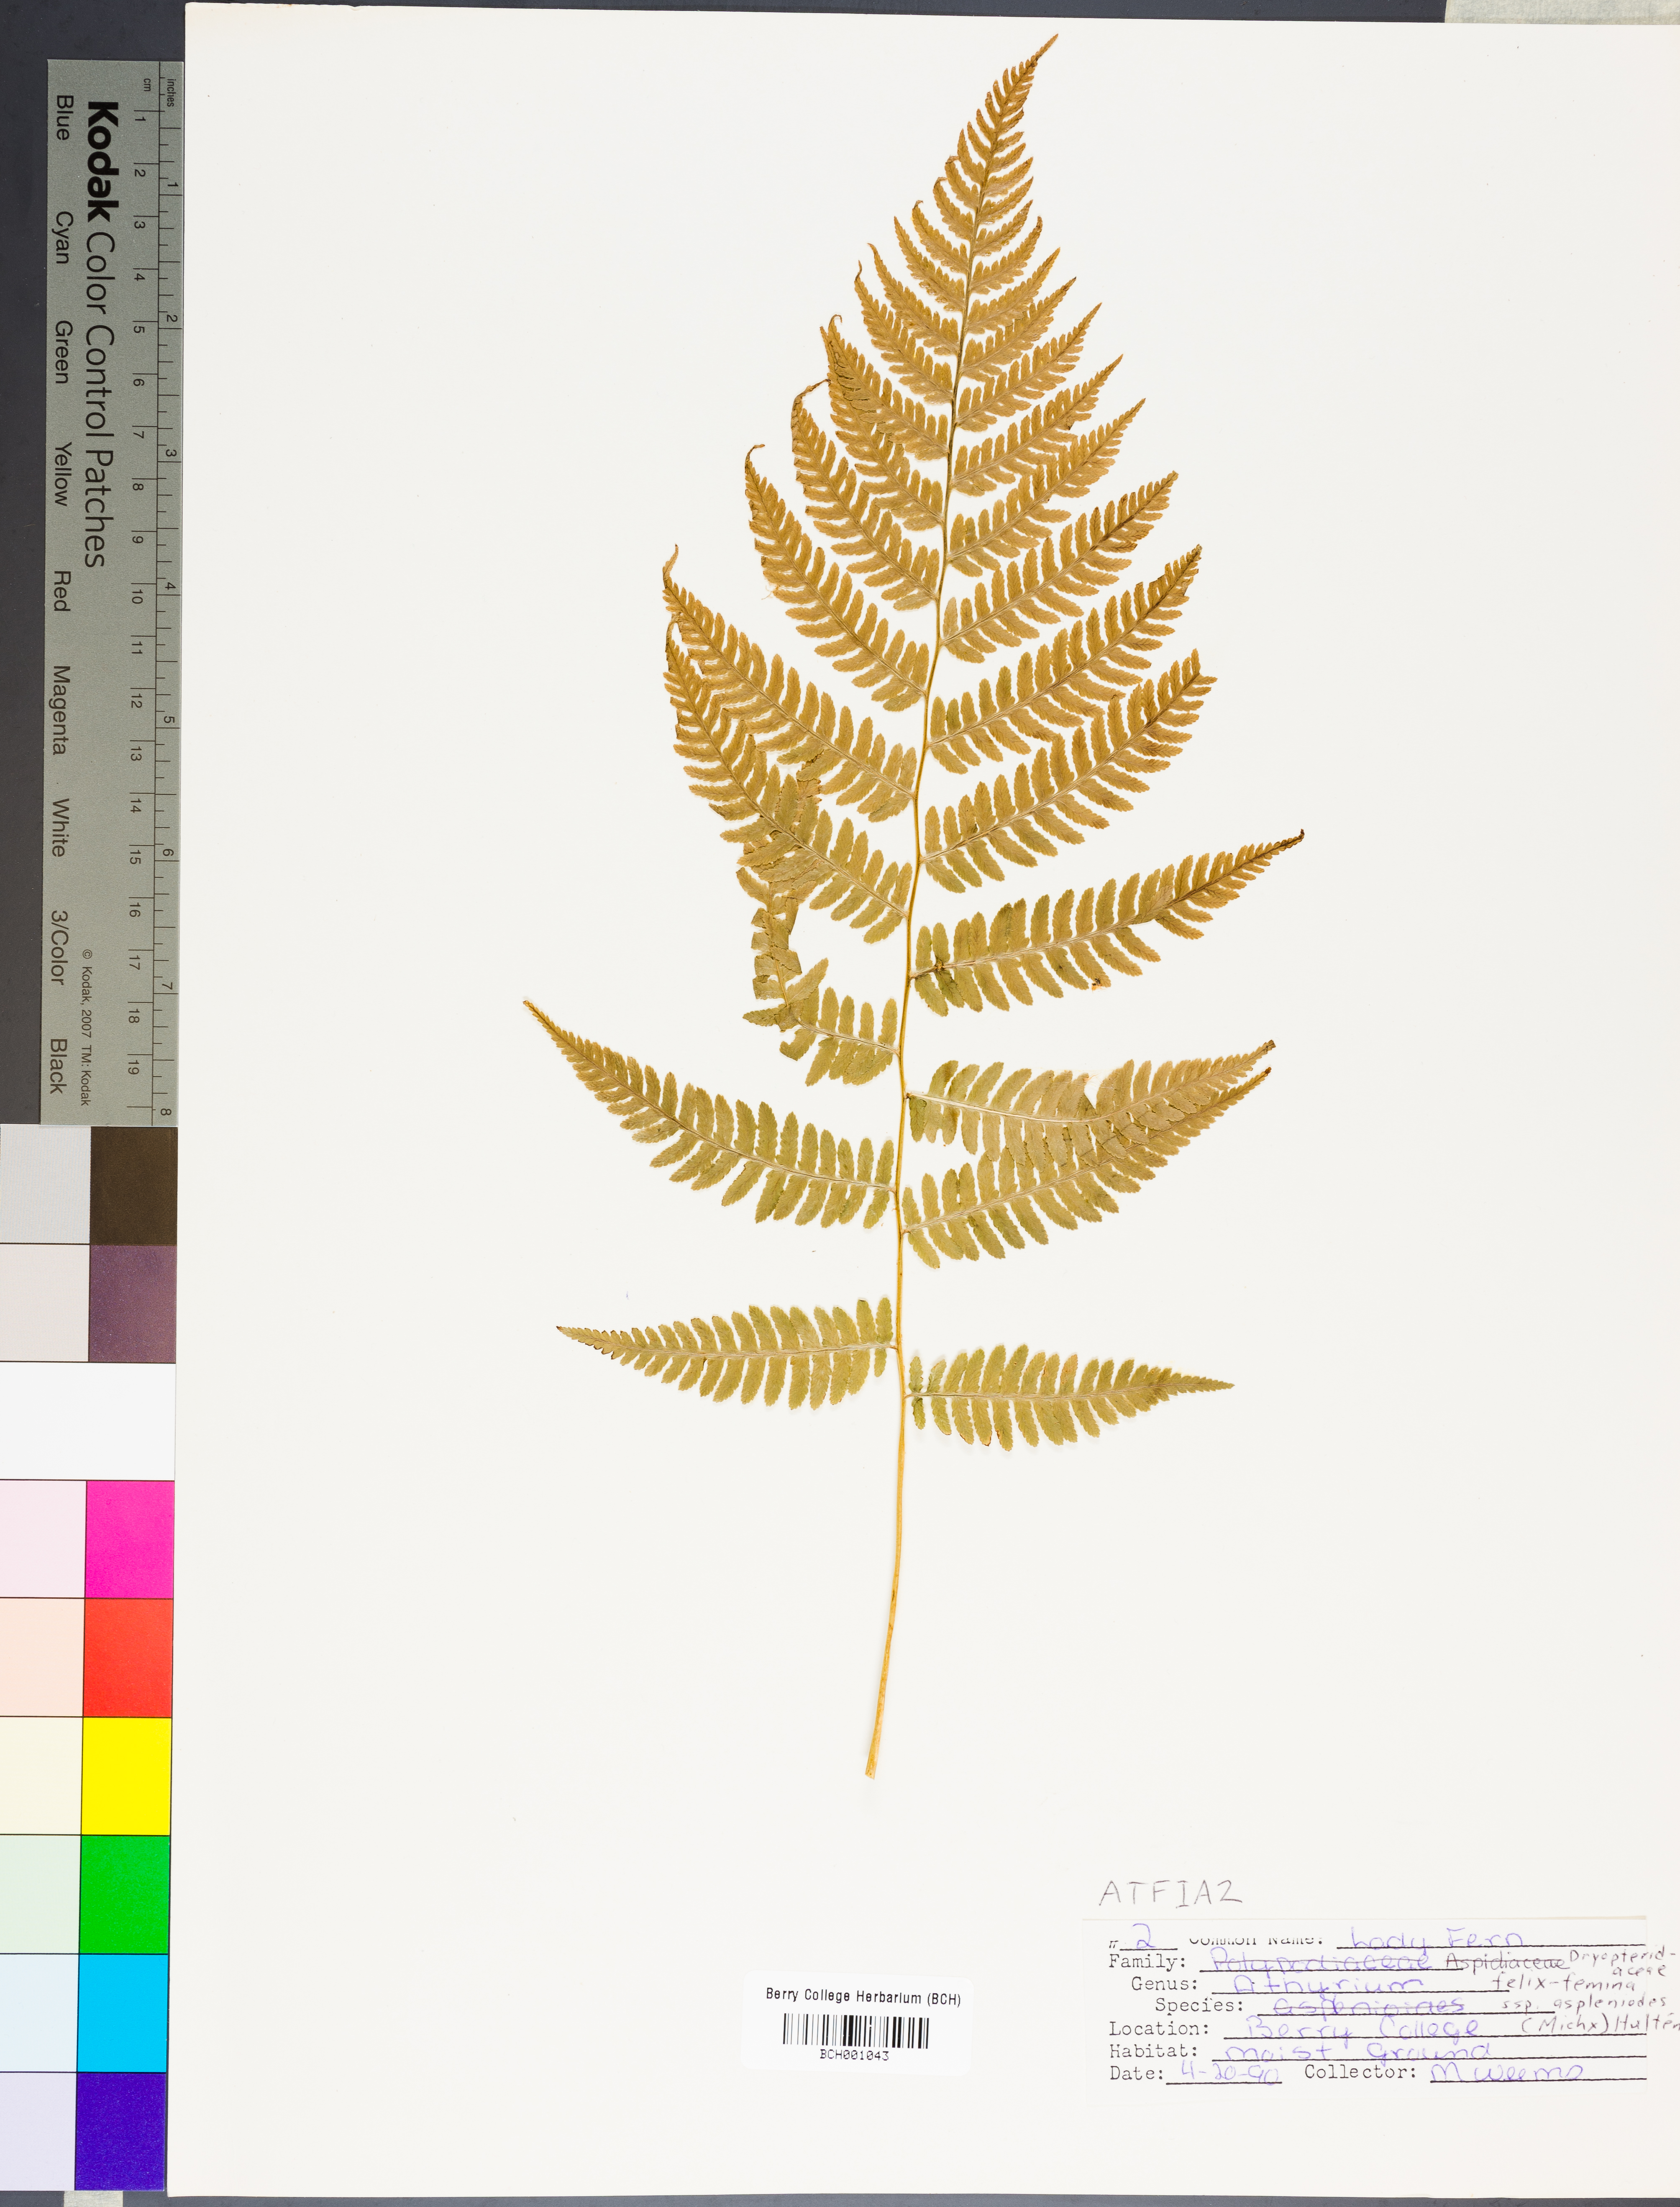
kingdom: Plantae
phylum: Tracheophyta
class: Polypodiopsida
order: Polypodiales
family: Athyriaceae
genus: Athyrium
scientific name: Athyrium asplenioides
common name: Southern lady fern
